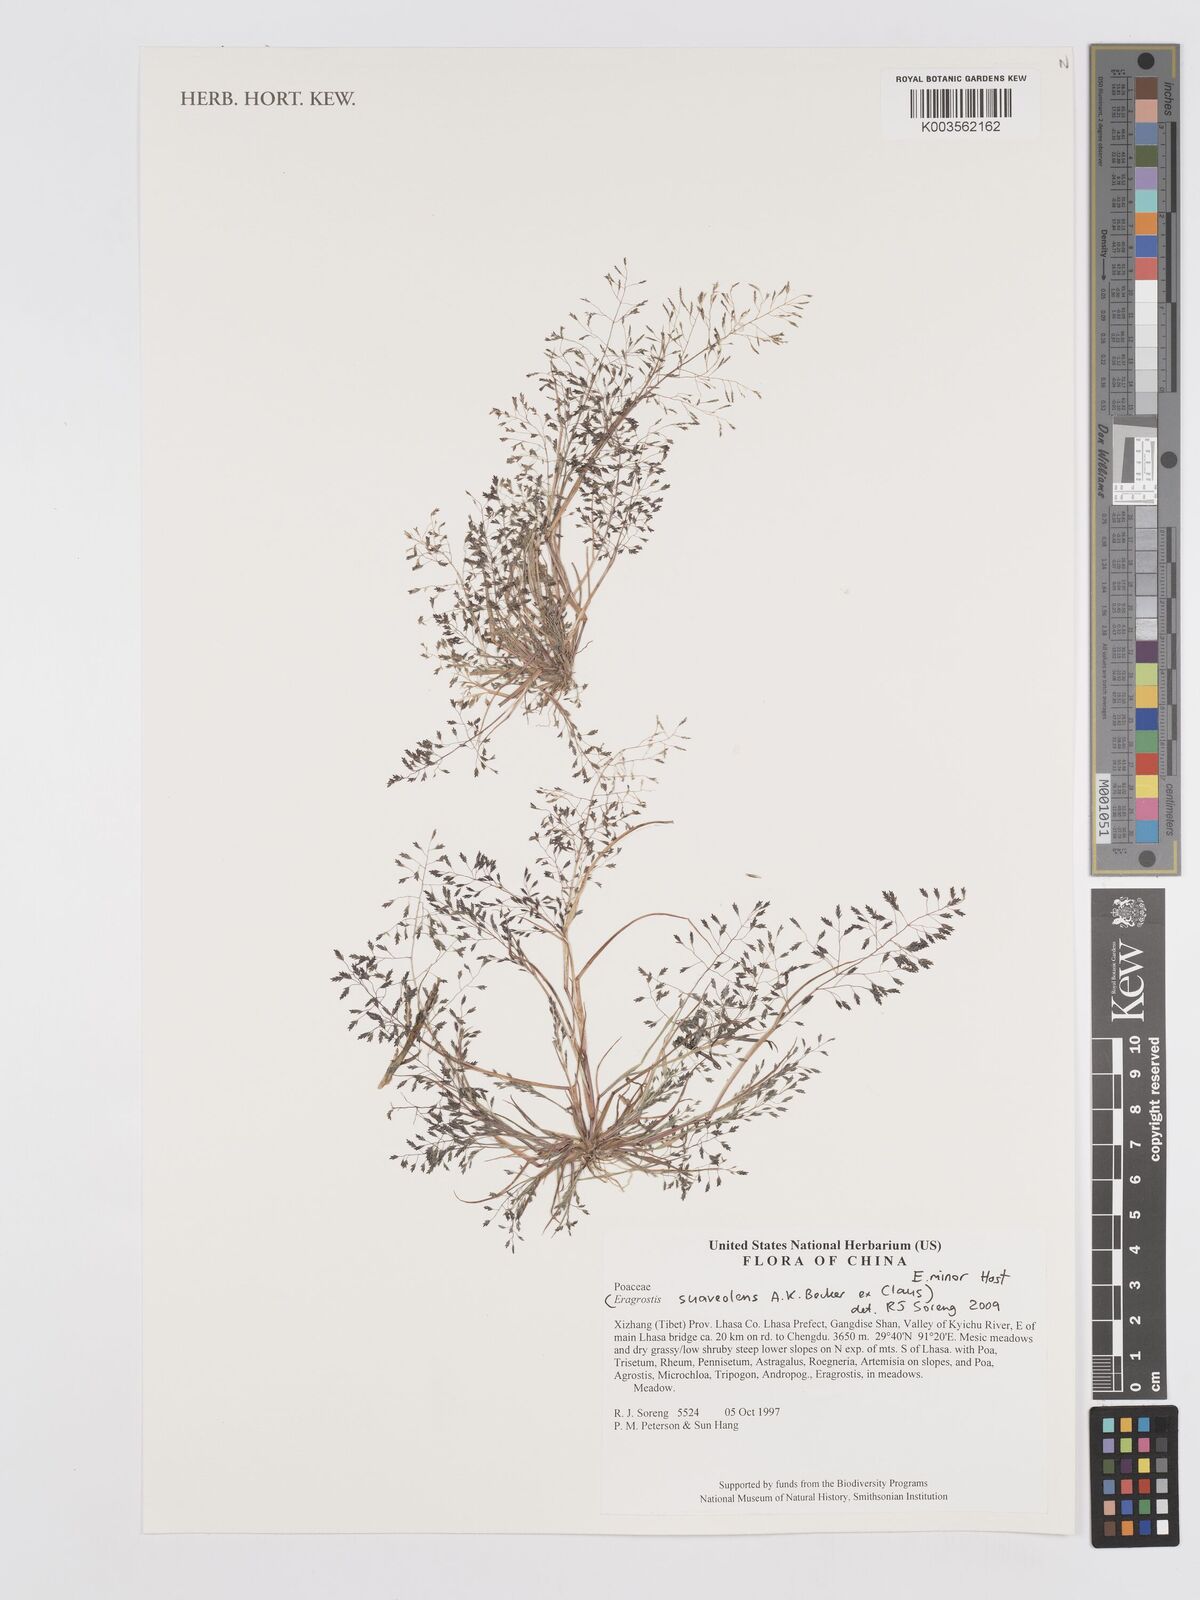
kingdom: Plantae
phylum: Tracheophyta
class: Liliopsida
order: Poales
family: Poaceae
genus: Eragrostis
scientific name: Eragrostis minor
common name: Small love-grass
